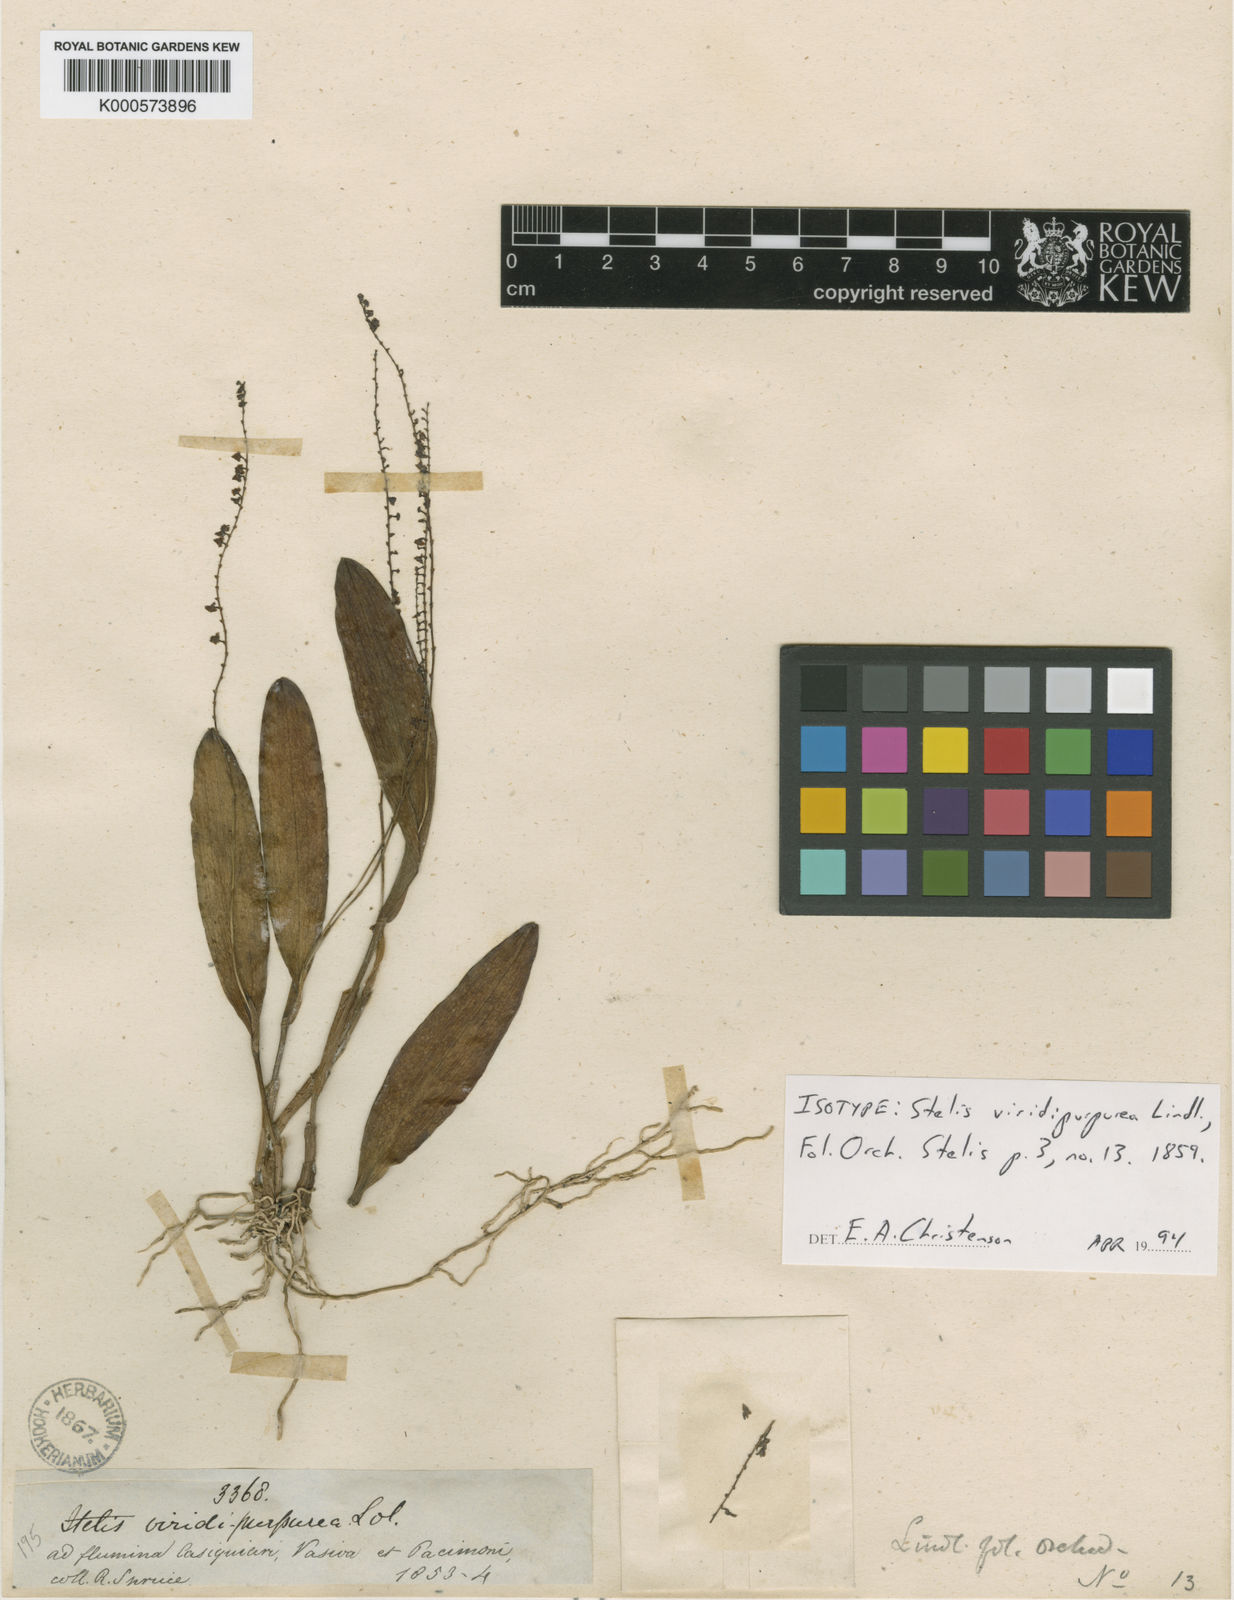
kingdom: Plantae
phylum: Tracheophyta
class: Liliopsida
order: Asparagales
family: Orchidaceae
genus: Stelis
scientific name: Stelis papaquerensis
